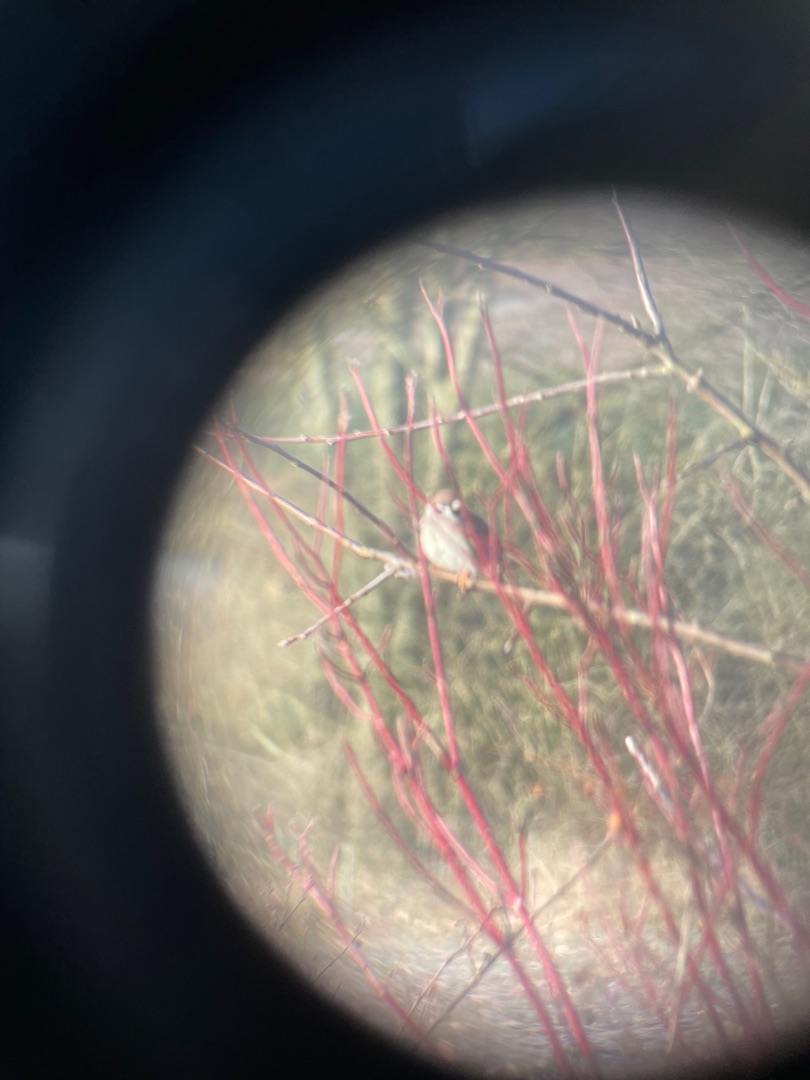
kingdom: Animalia
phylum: Chordata
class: Aves
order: Passeriformes
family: Passeridae
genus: Passer
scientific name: Passer montanus
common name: Skovspurv
